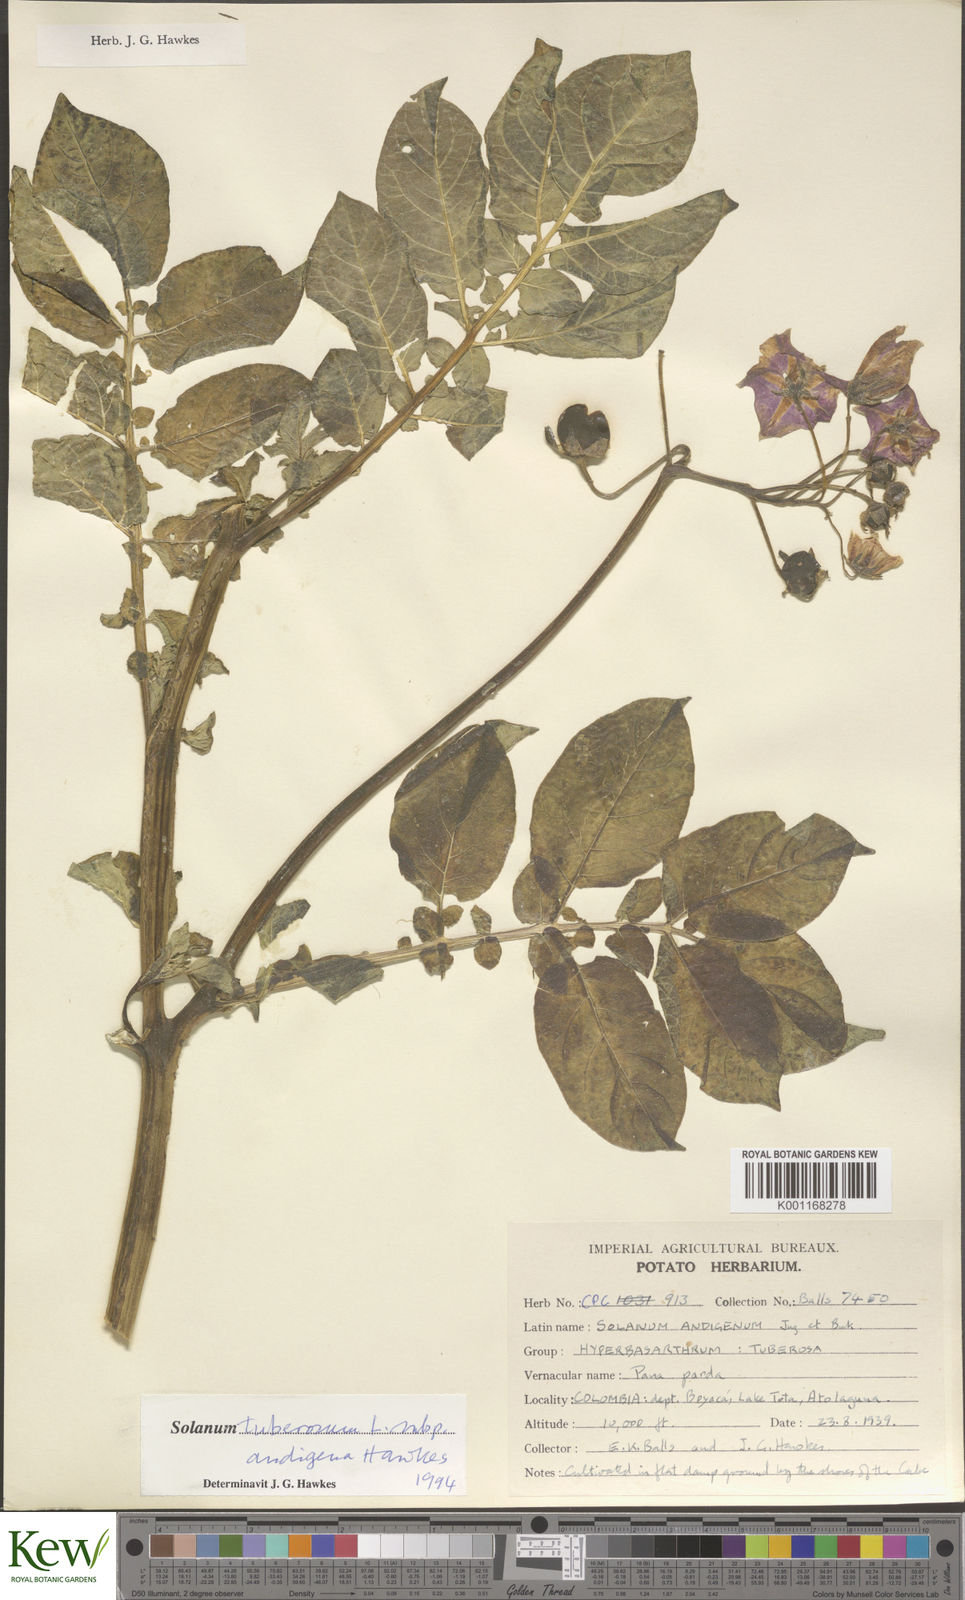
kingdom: Plantae
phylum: Tracheophyta
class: Magnoliopsida
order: Solanales
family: Solanaceae
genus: Solanum
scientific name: Solanum tuberosum
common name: Potato
